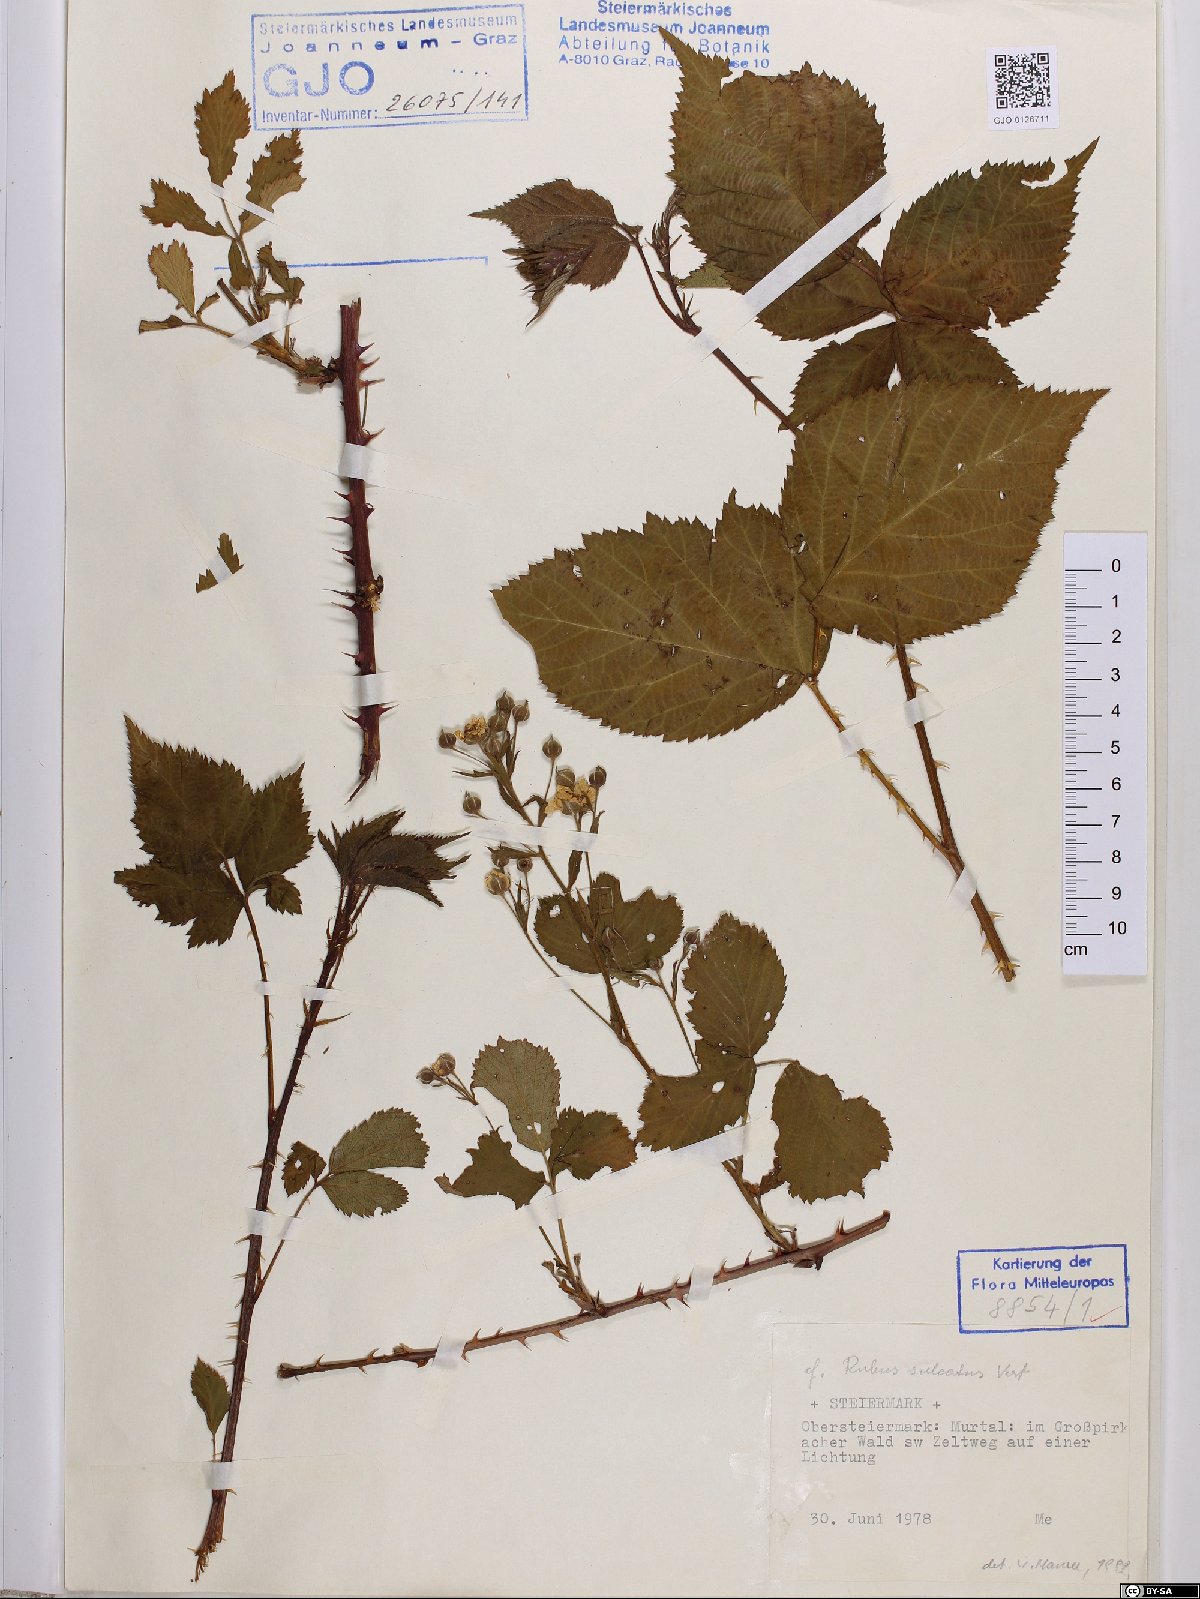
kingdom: Plantae
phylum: Tracheophyta
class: Magnoliopsida
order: Rosales
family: Rosaceae
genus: Rubus
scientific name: Rubus sulcatus
